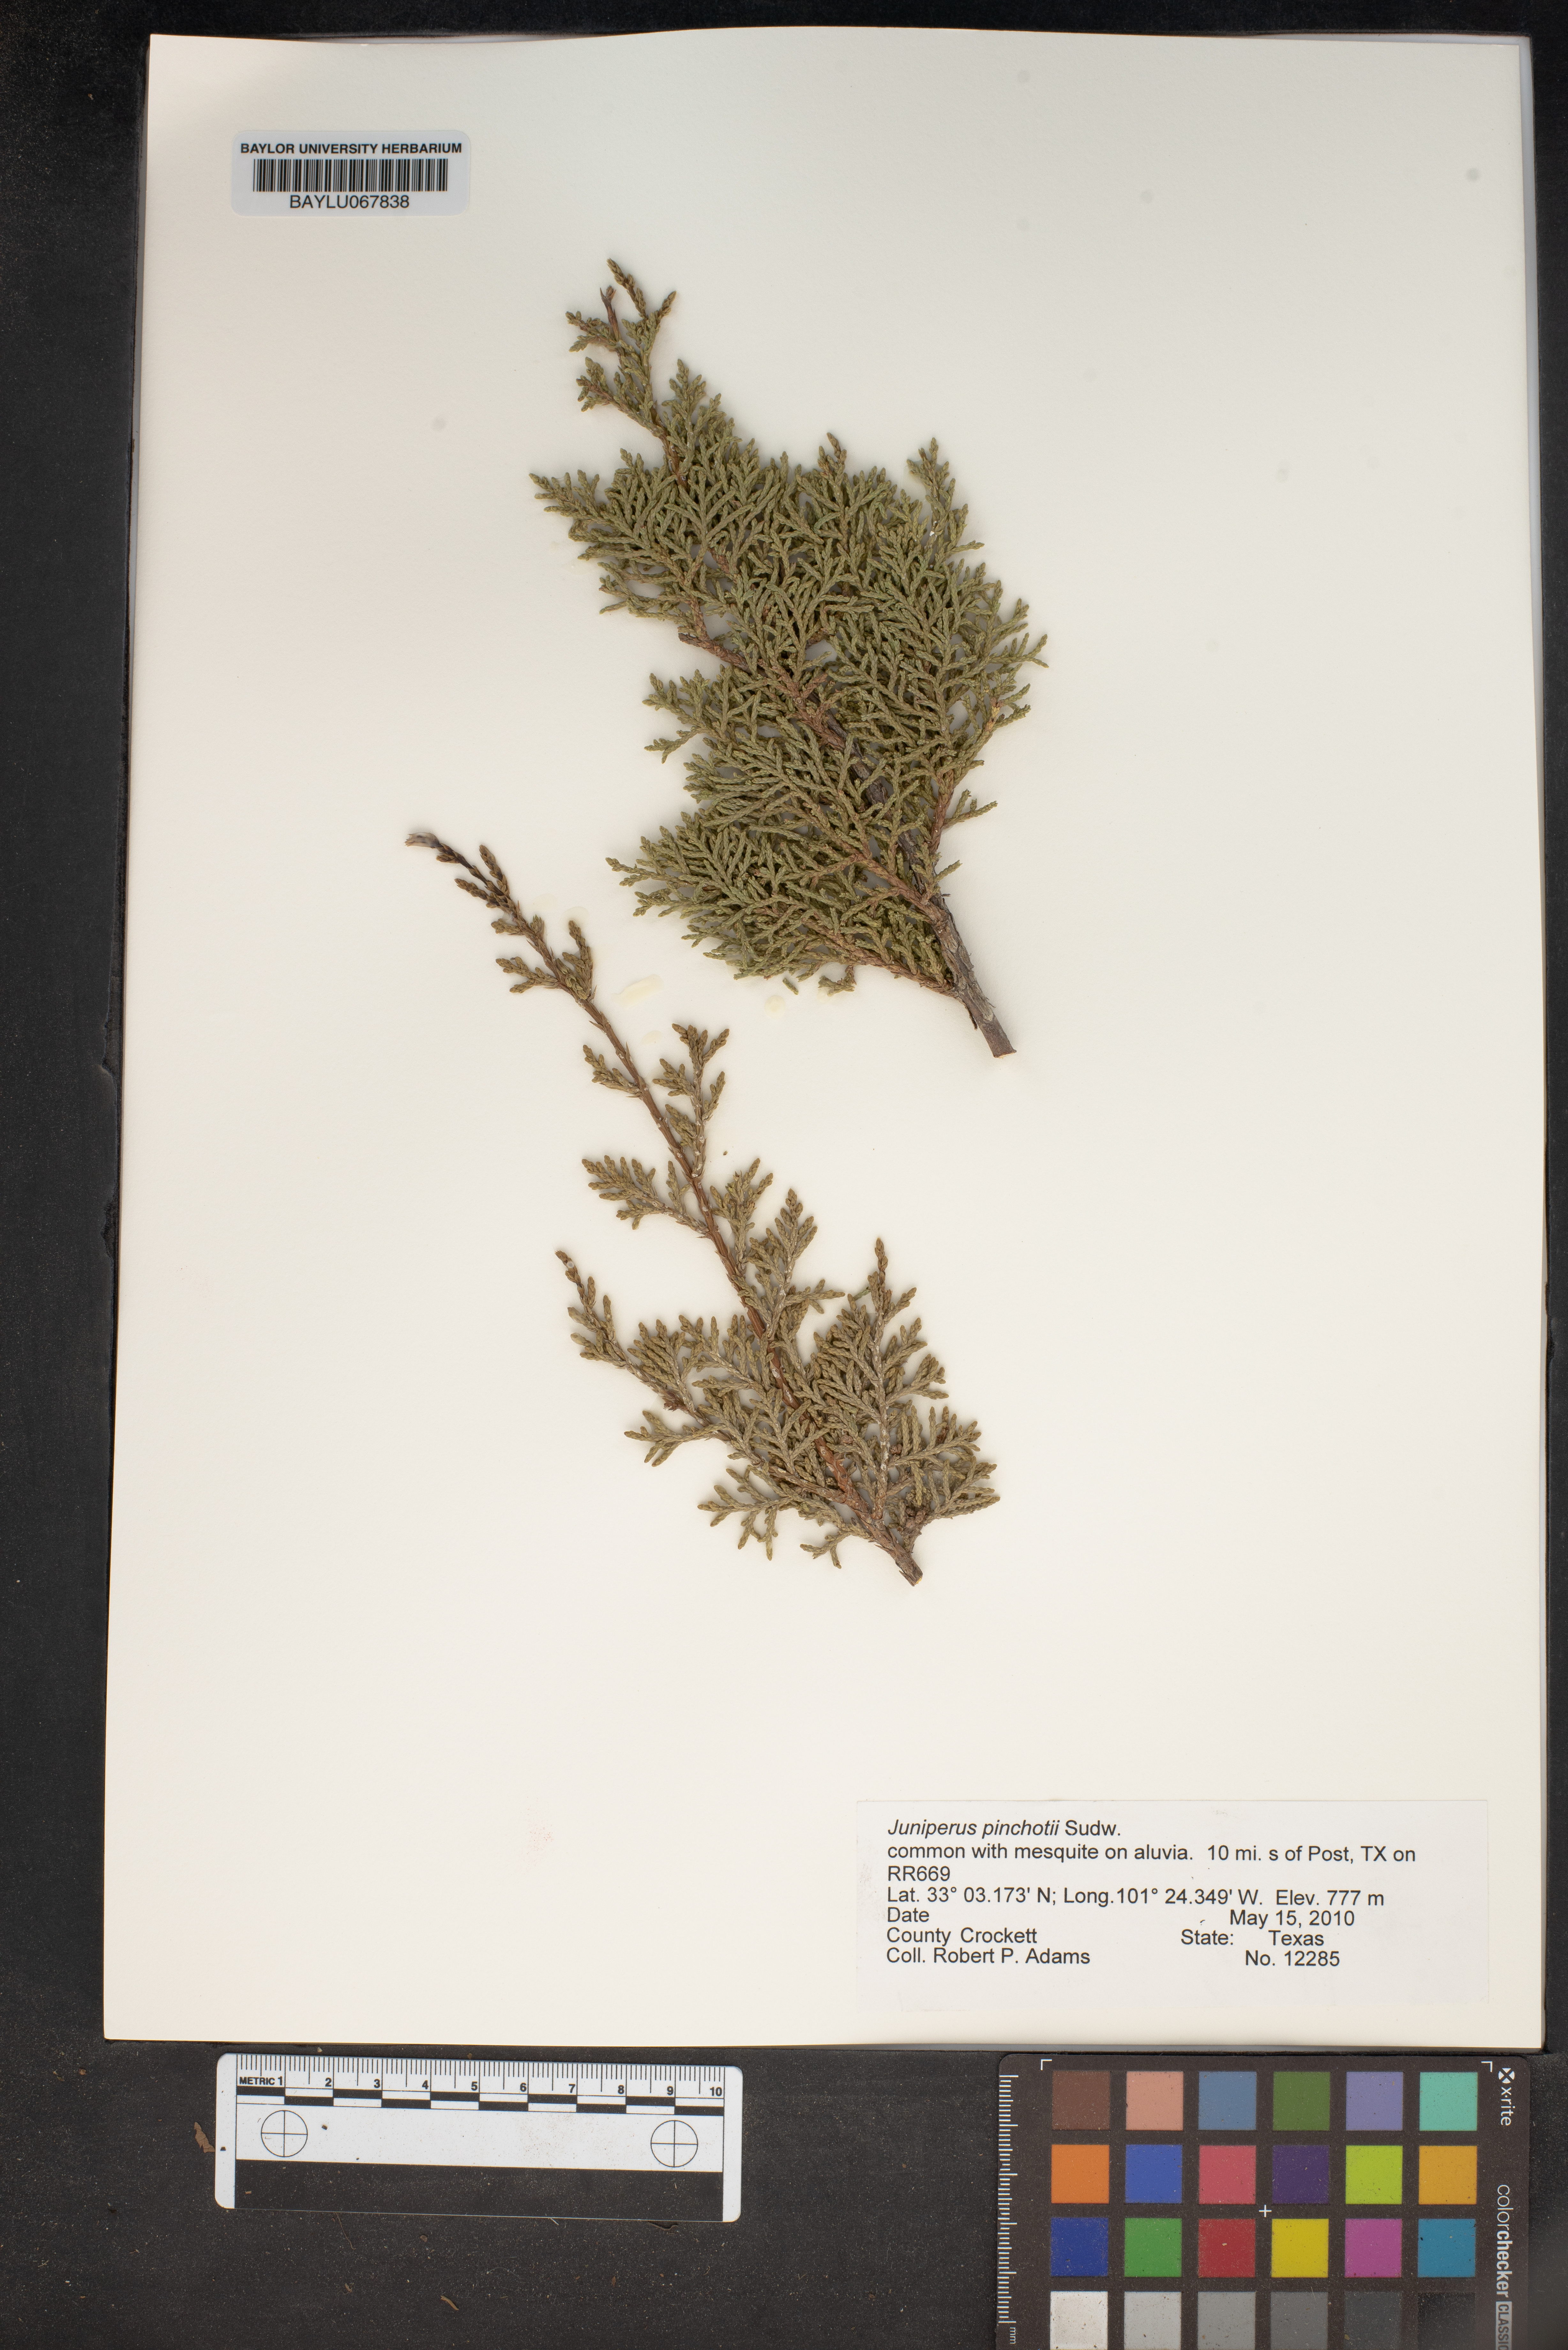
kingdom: Plantae
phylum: Tracheophyta
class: Pinopsida
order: Pinales
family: Cupressaceae
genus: Juniperus
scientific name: Juniperus pinchotii
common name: Pinchot juniper
